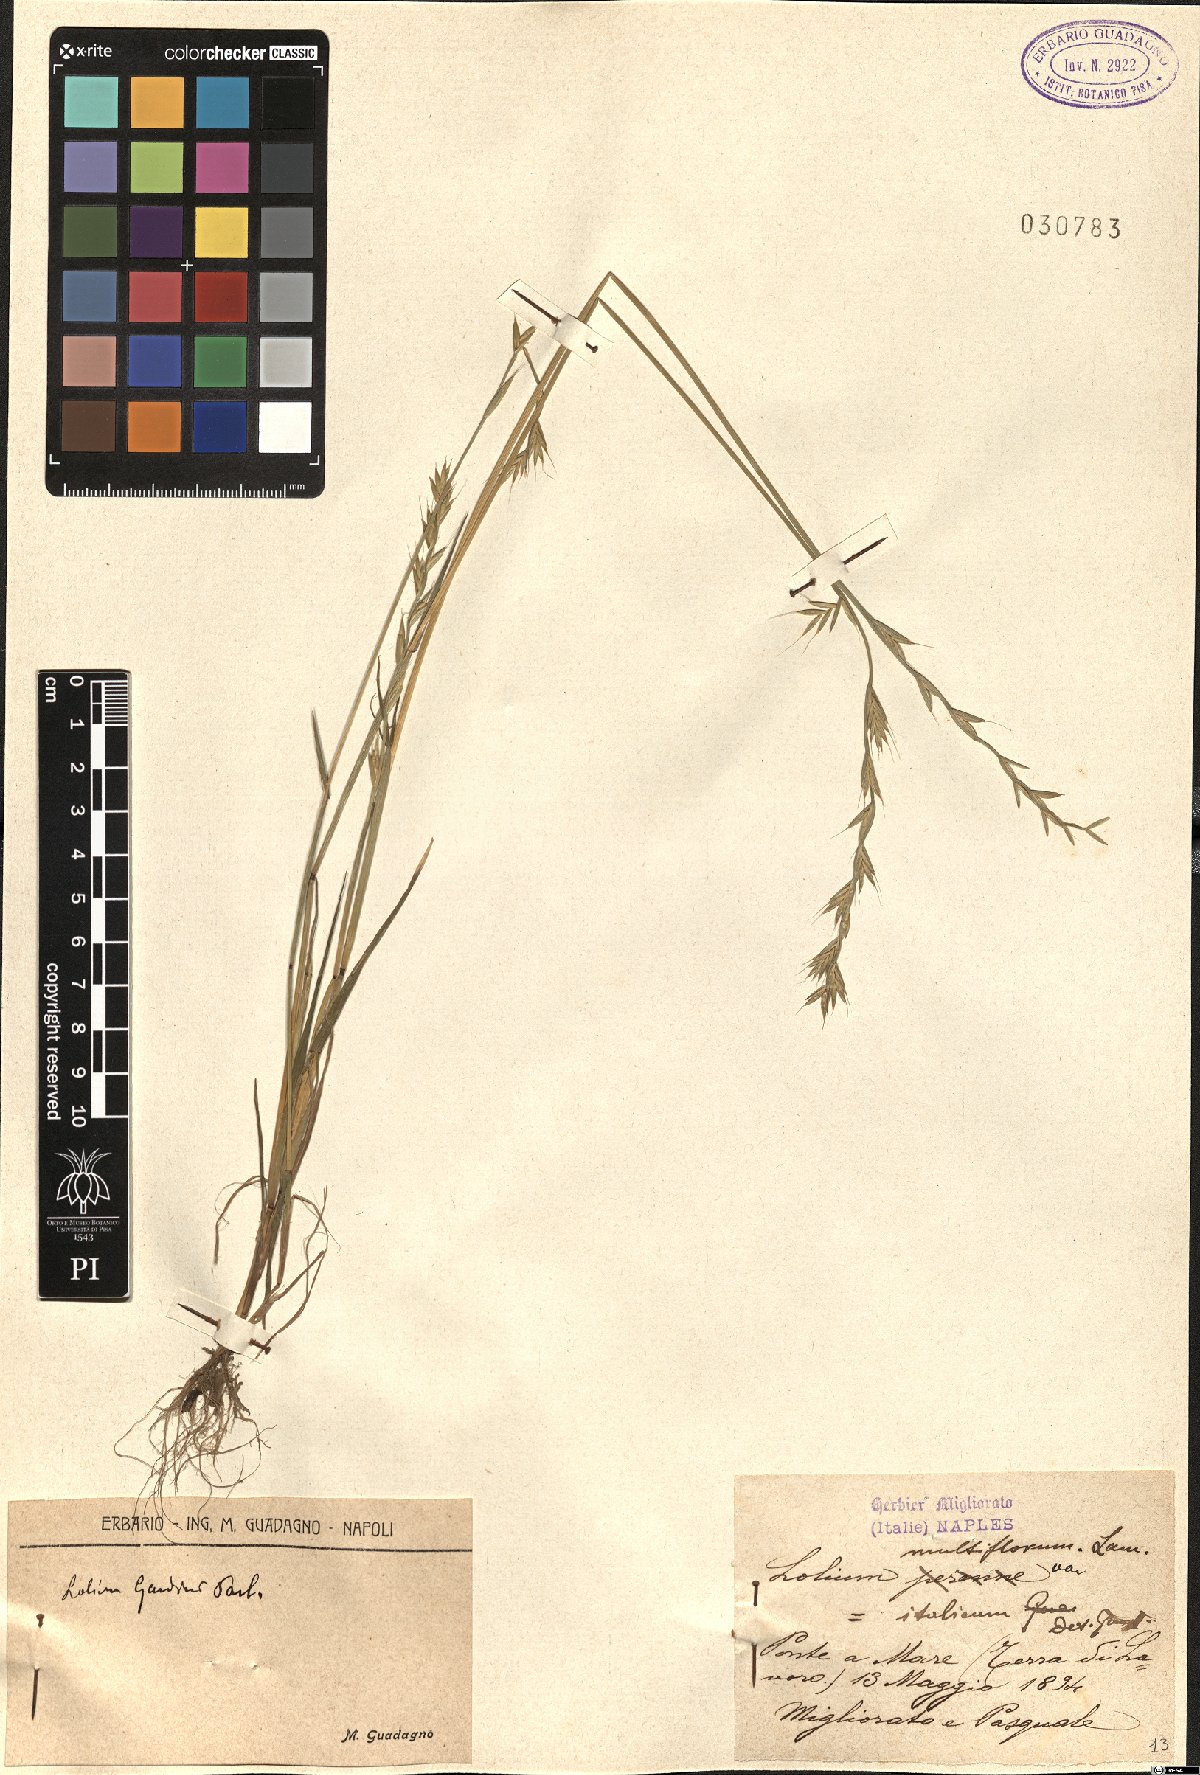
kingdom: Plantae
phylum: Tracheophyta
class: Liliopsida
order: Poales
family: Poaceae
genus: Lolium
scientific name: Lolium multiflorum
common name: Annual ryegrass
